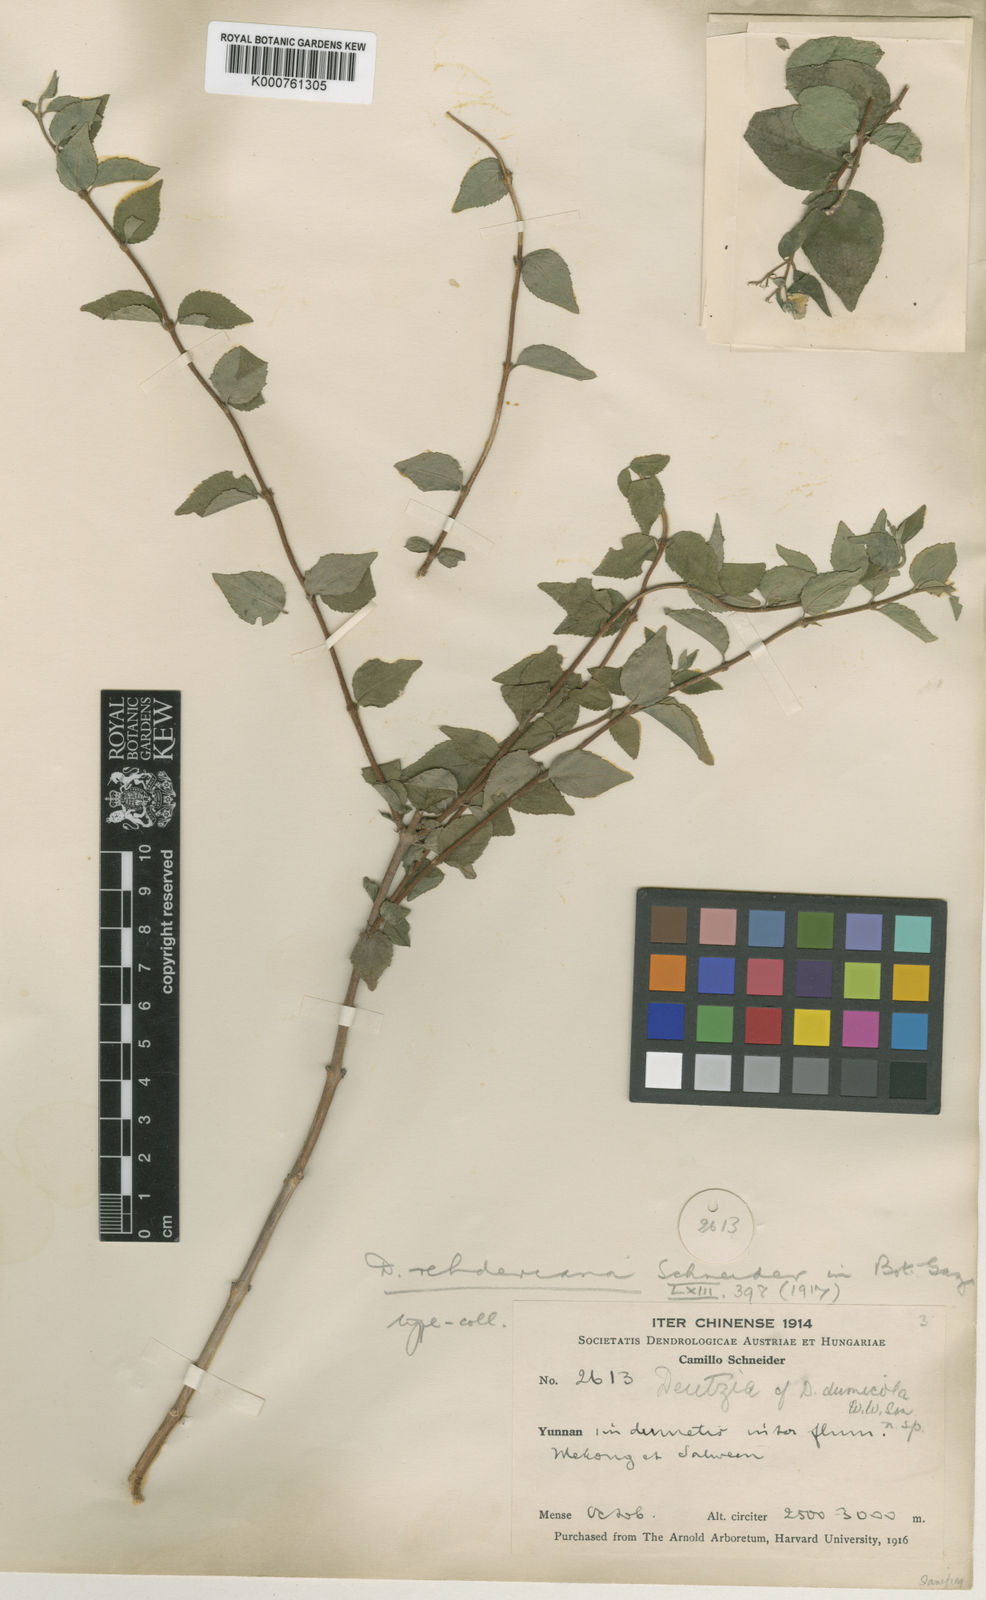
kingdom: Plantae
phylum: Tracheophyta
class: Magnoliopsida
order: Cornales
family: Hydrangeaceae
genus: Deutzia
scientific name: Deutzia rehderiana
